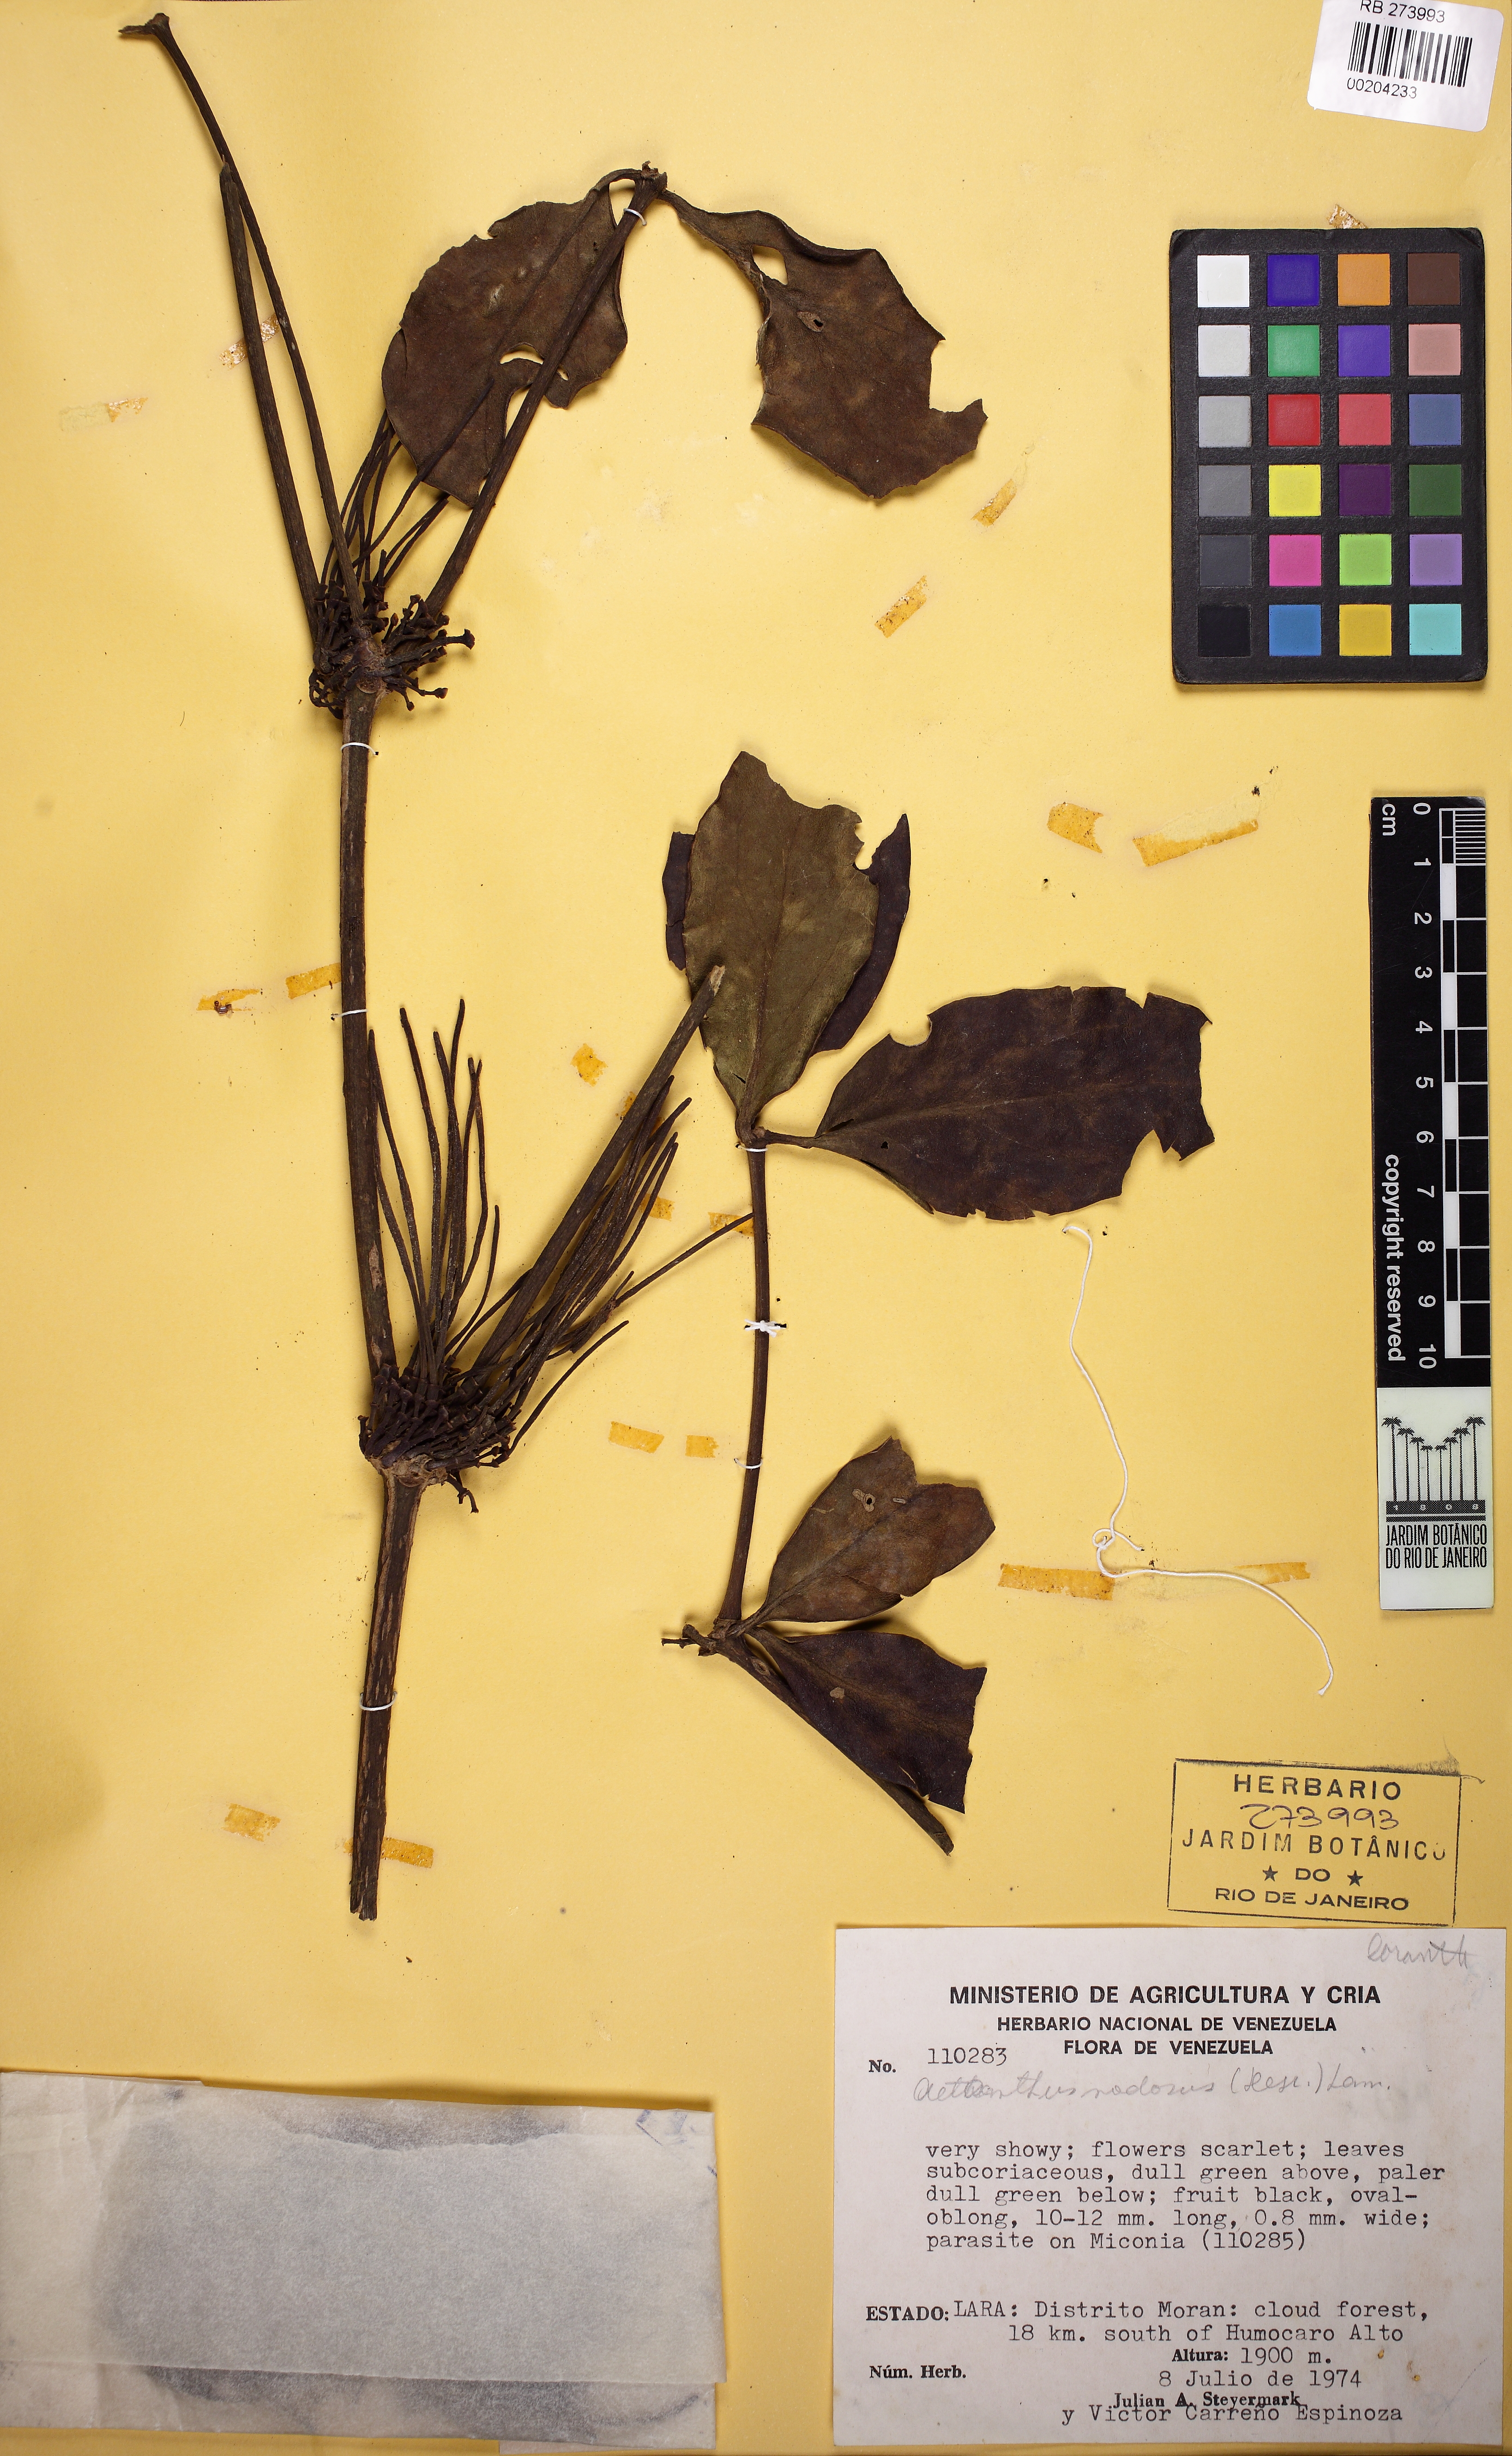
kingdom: Plantae
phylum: Tracheophyta
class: Magnoliopsida
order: Santalales
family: Loranthaceae
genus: Aetanthus
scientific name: Aetanthus nodosus
